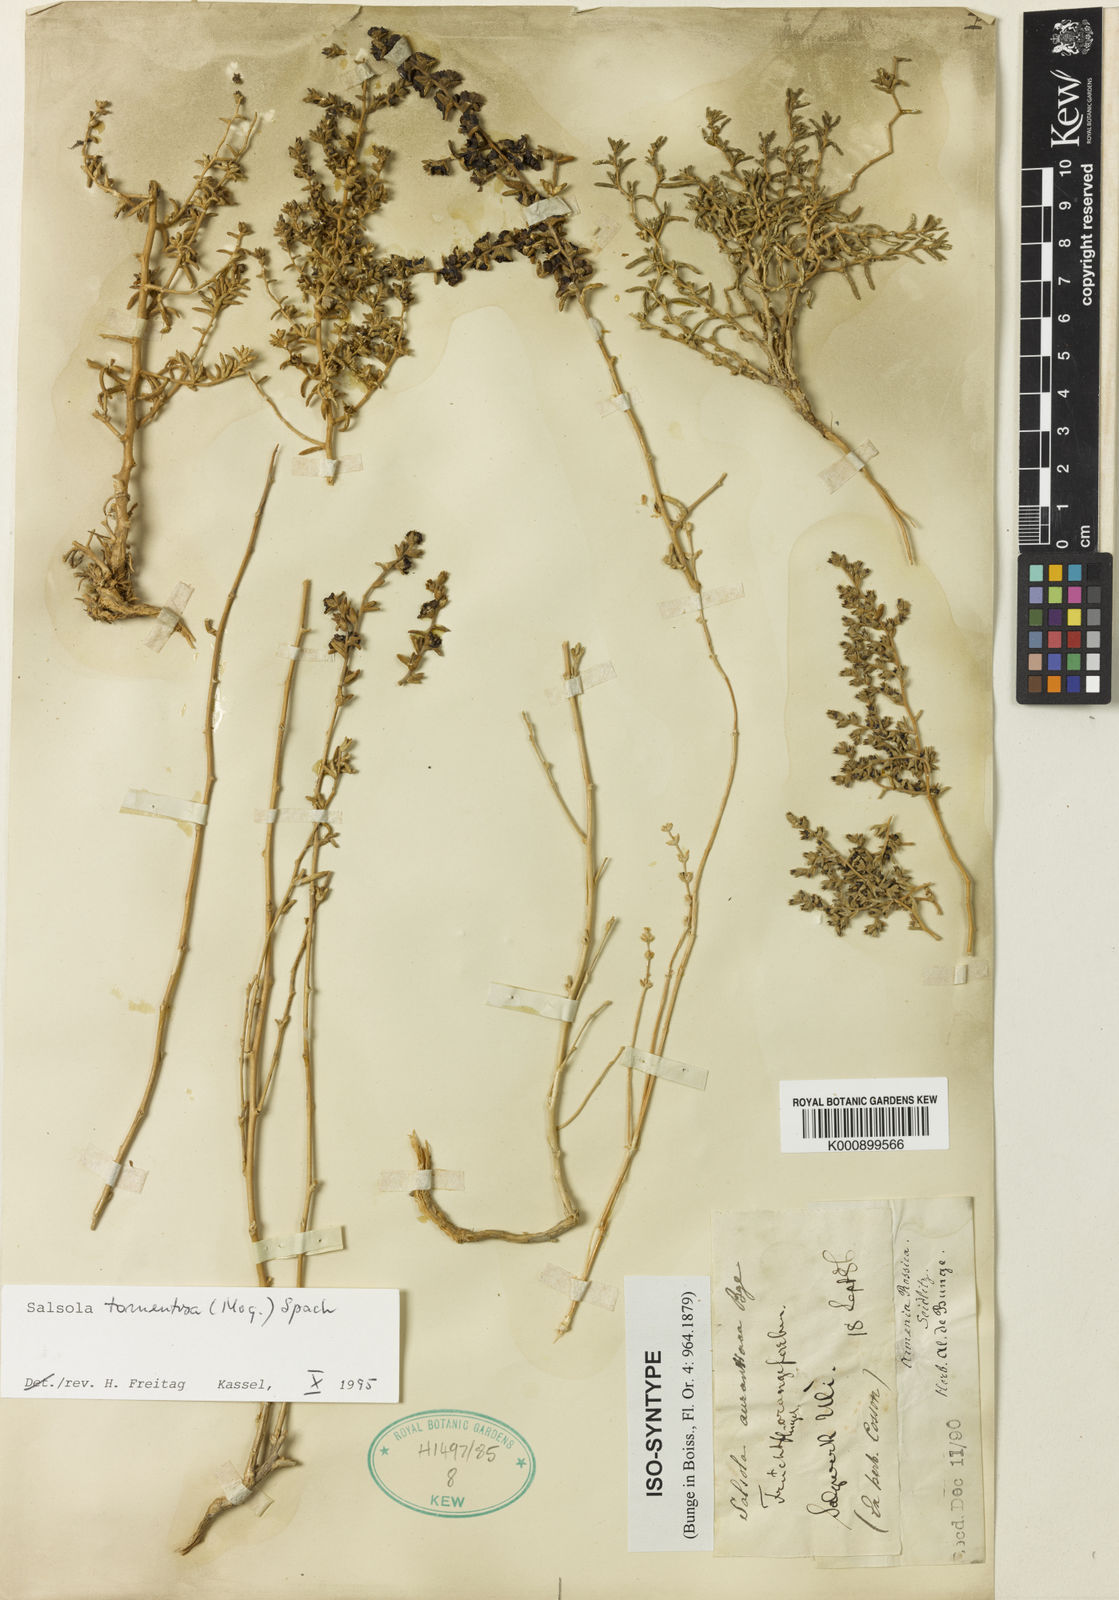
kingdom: Plantae
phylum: Tracheophyta
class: Magnoliopsida
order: Caryophyllales
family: Amaranthaceae
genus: Kaviria
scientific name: Kaviria tomentosa
